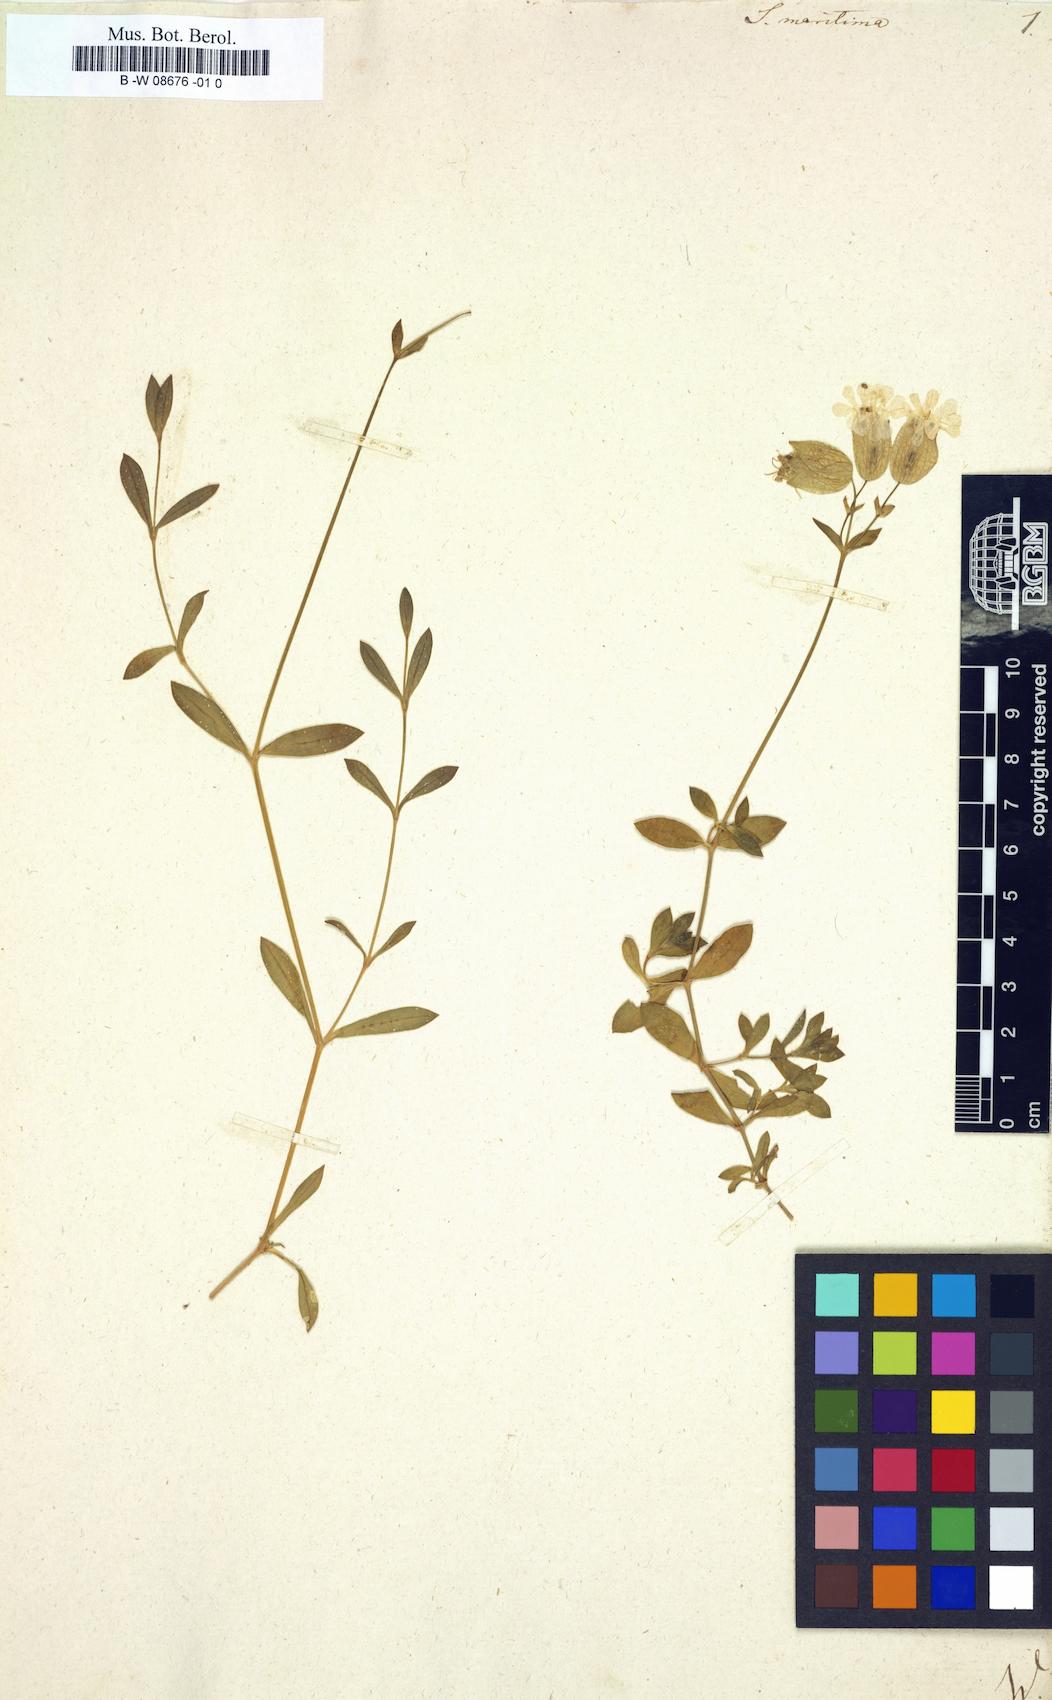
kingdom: Plantae
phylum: Tracheophyta
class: Magnoliopsida
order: Caryophyllales
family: Caryophyllaceae
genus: Silene
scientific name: Silene uniflora
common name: Sea campion
